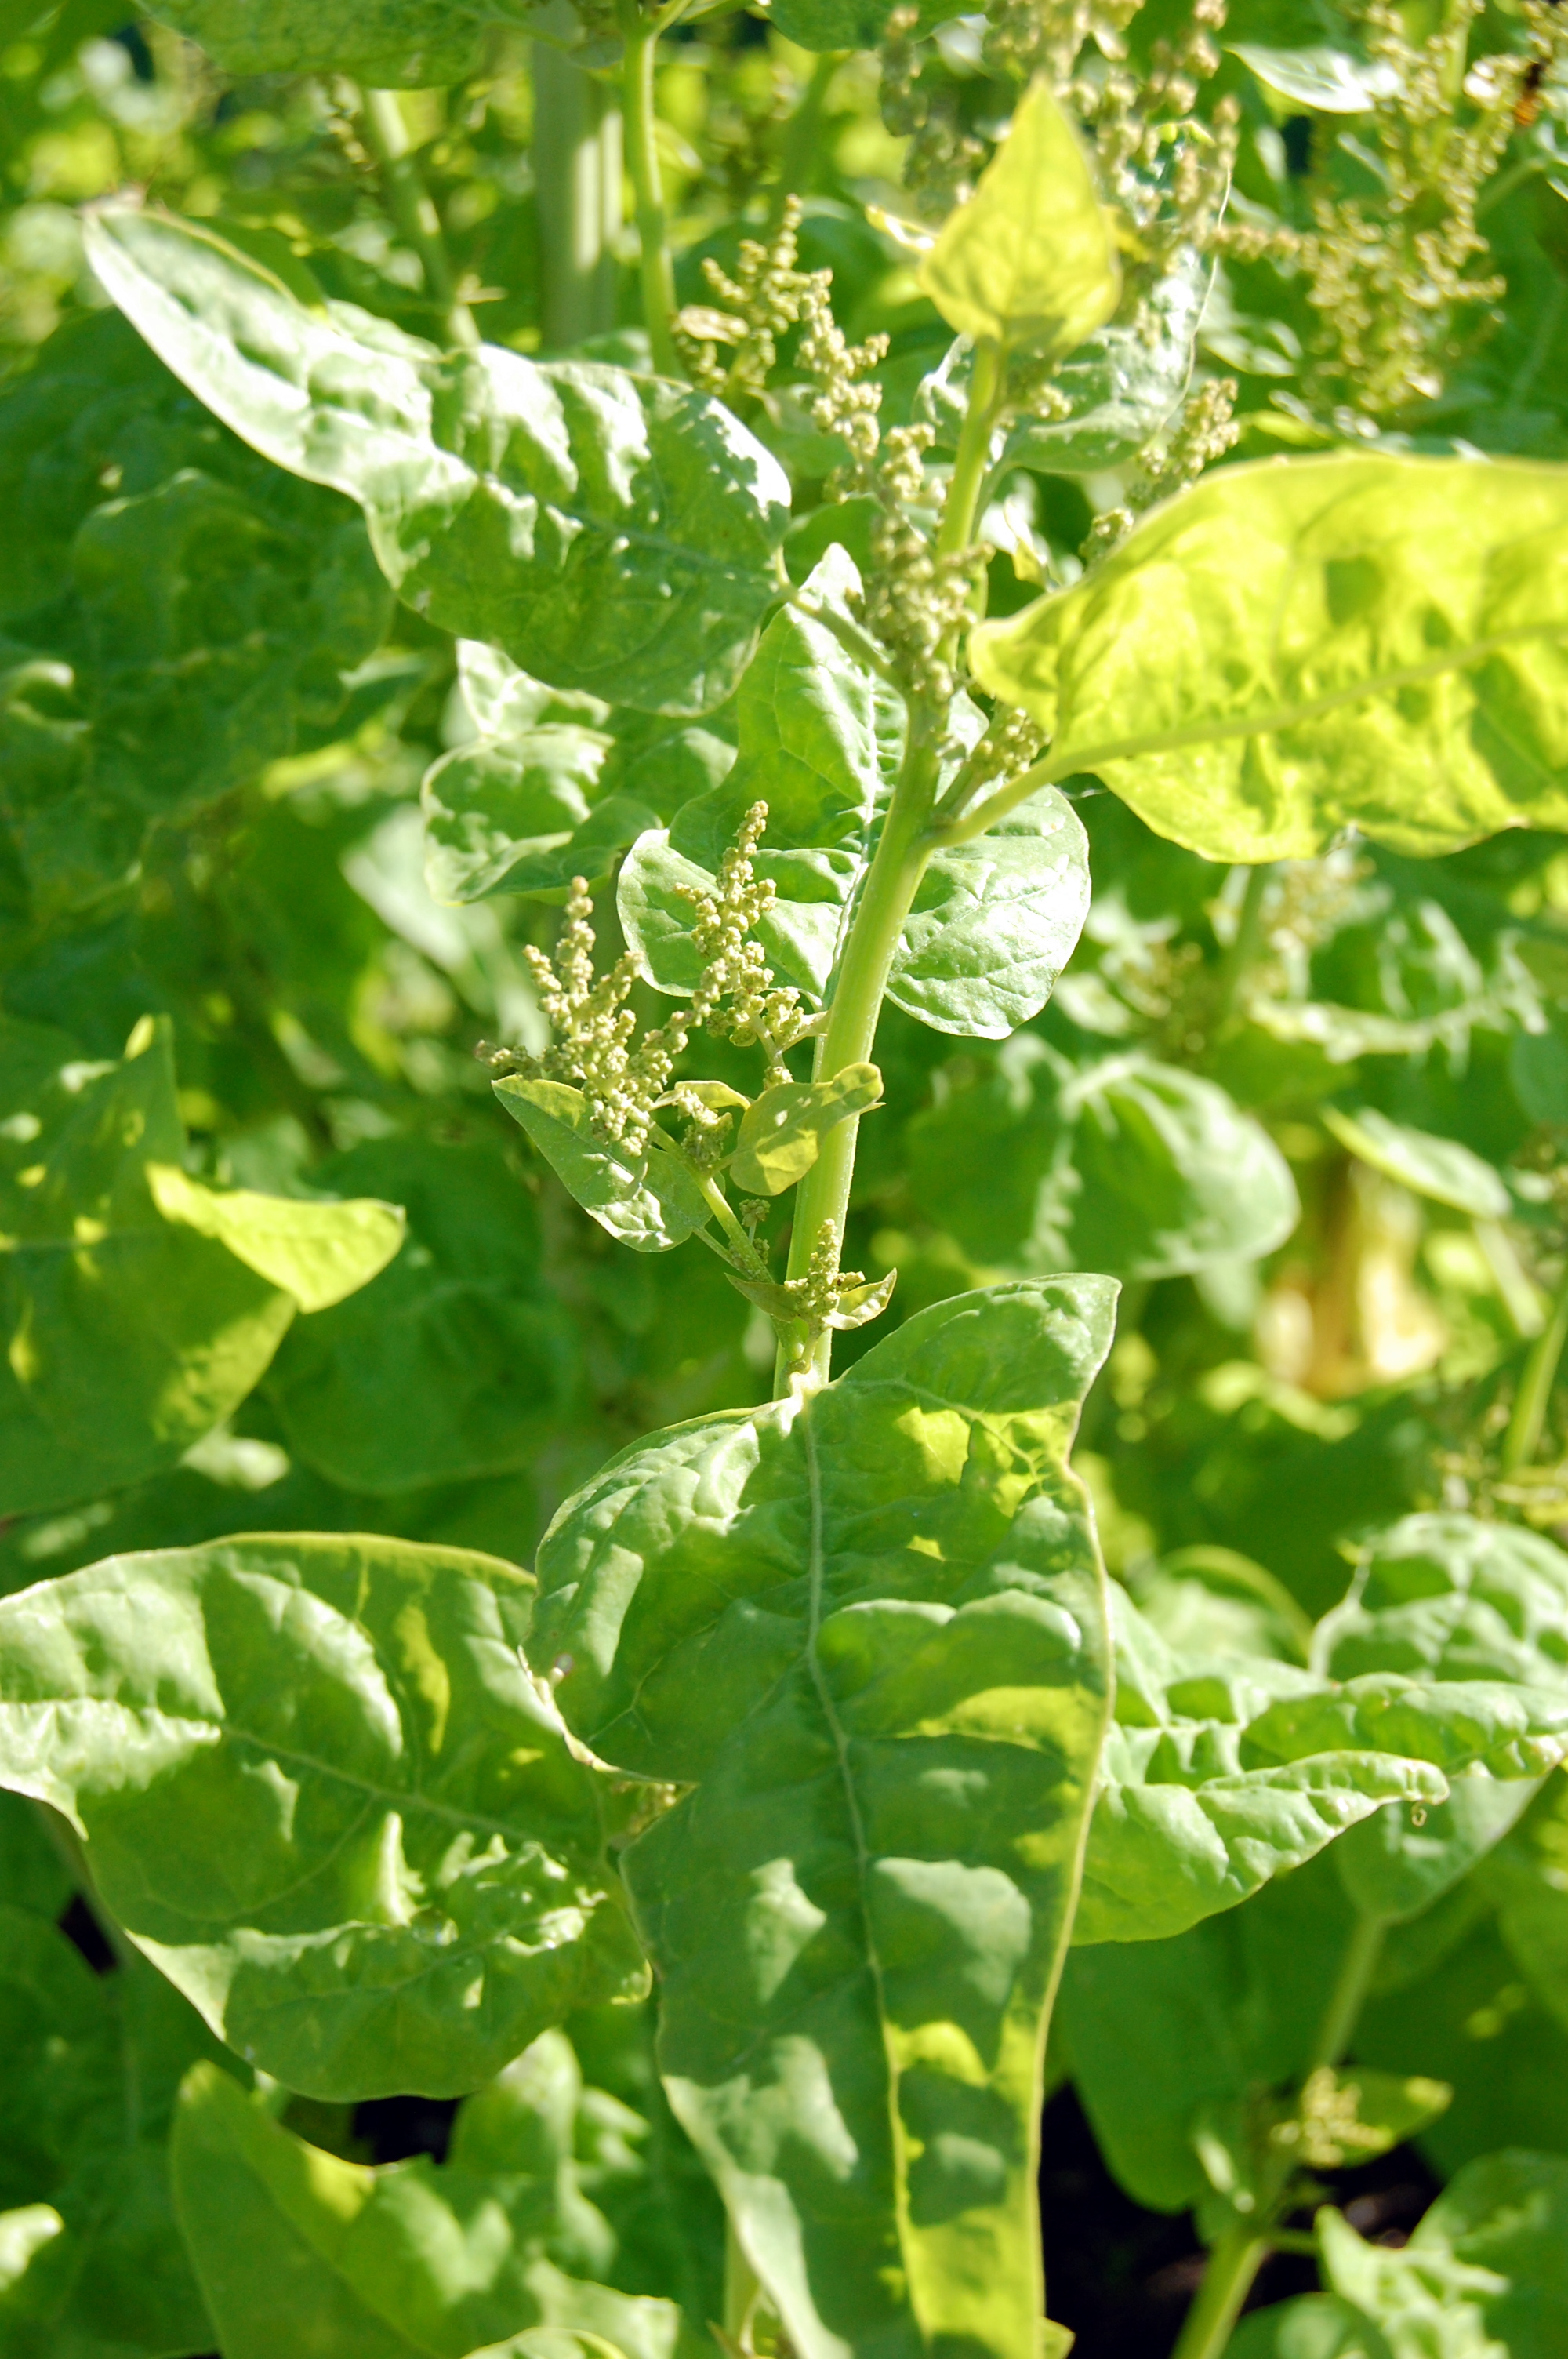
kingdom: Plantae
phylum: Tracheophyta
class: Magnoliopsida
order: Caryophyllales
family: Amaranthaceae
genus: Atriplex
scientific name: Atriplex hortensis
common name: Garden orache
